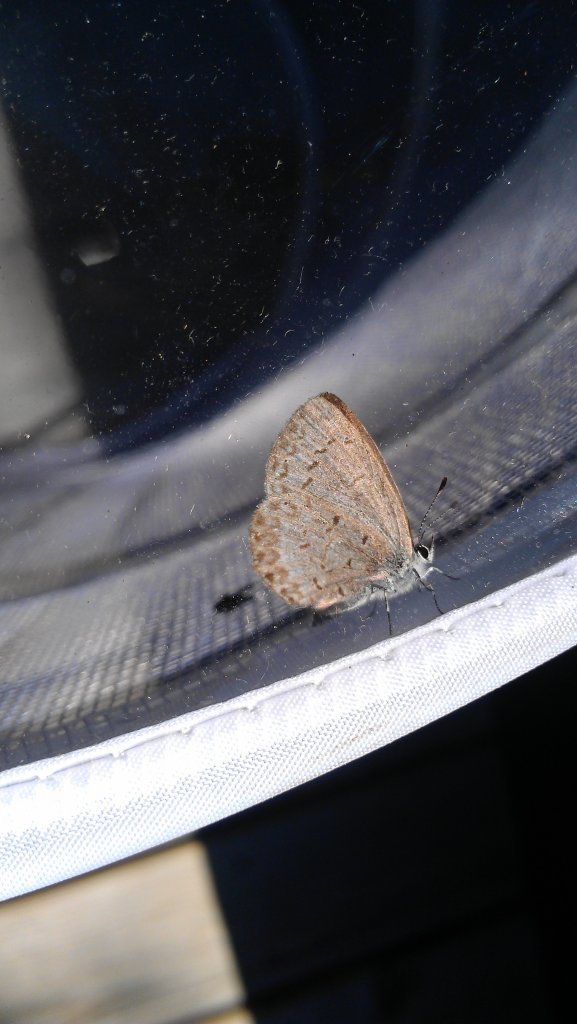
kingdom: Animalia
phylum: Arthropoda
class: Insecta
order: Lepidoptera
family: Lycaenidae
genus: Celastrina
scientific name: Celastrina lucia
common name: Northern Spring Azure
